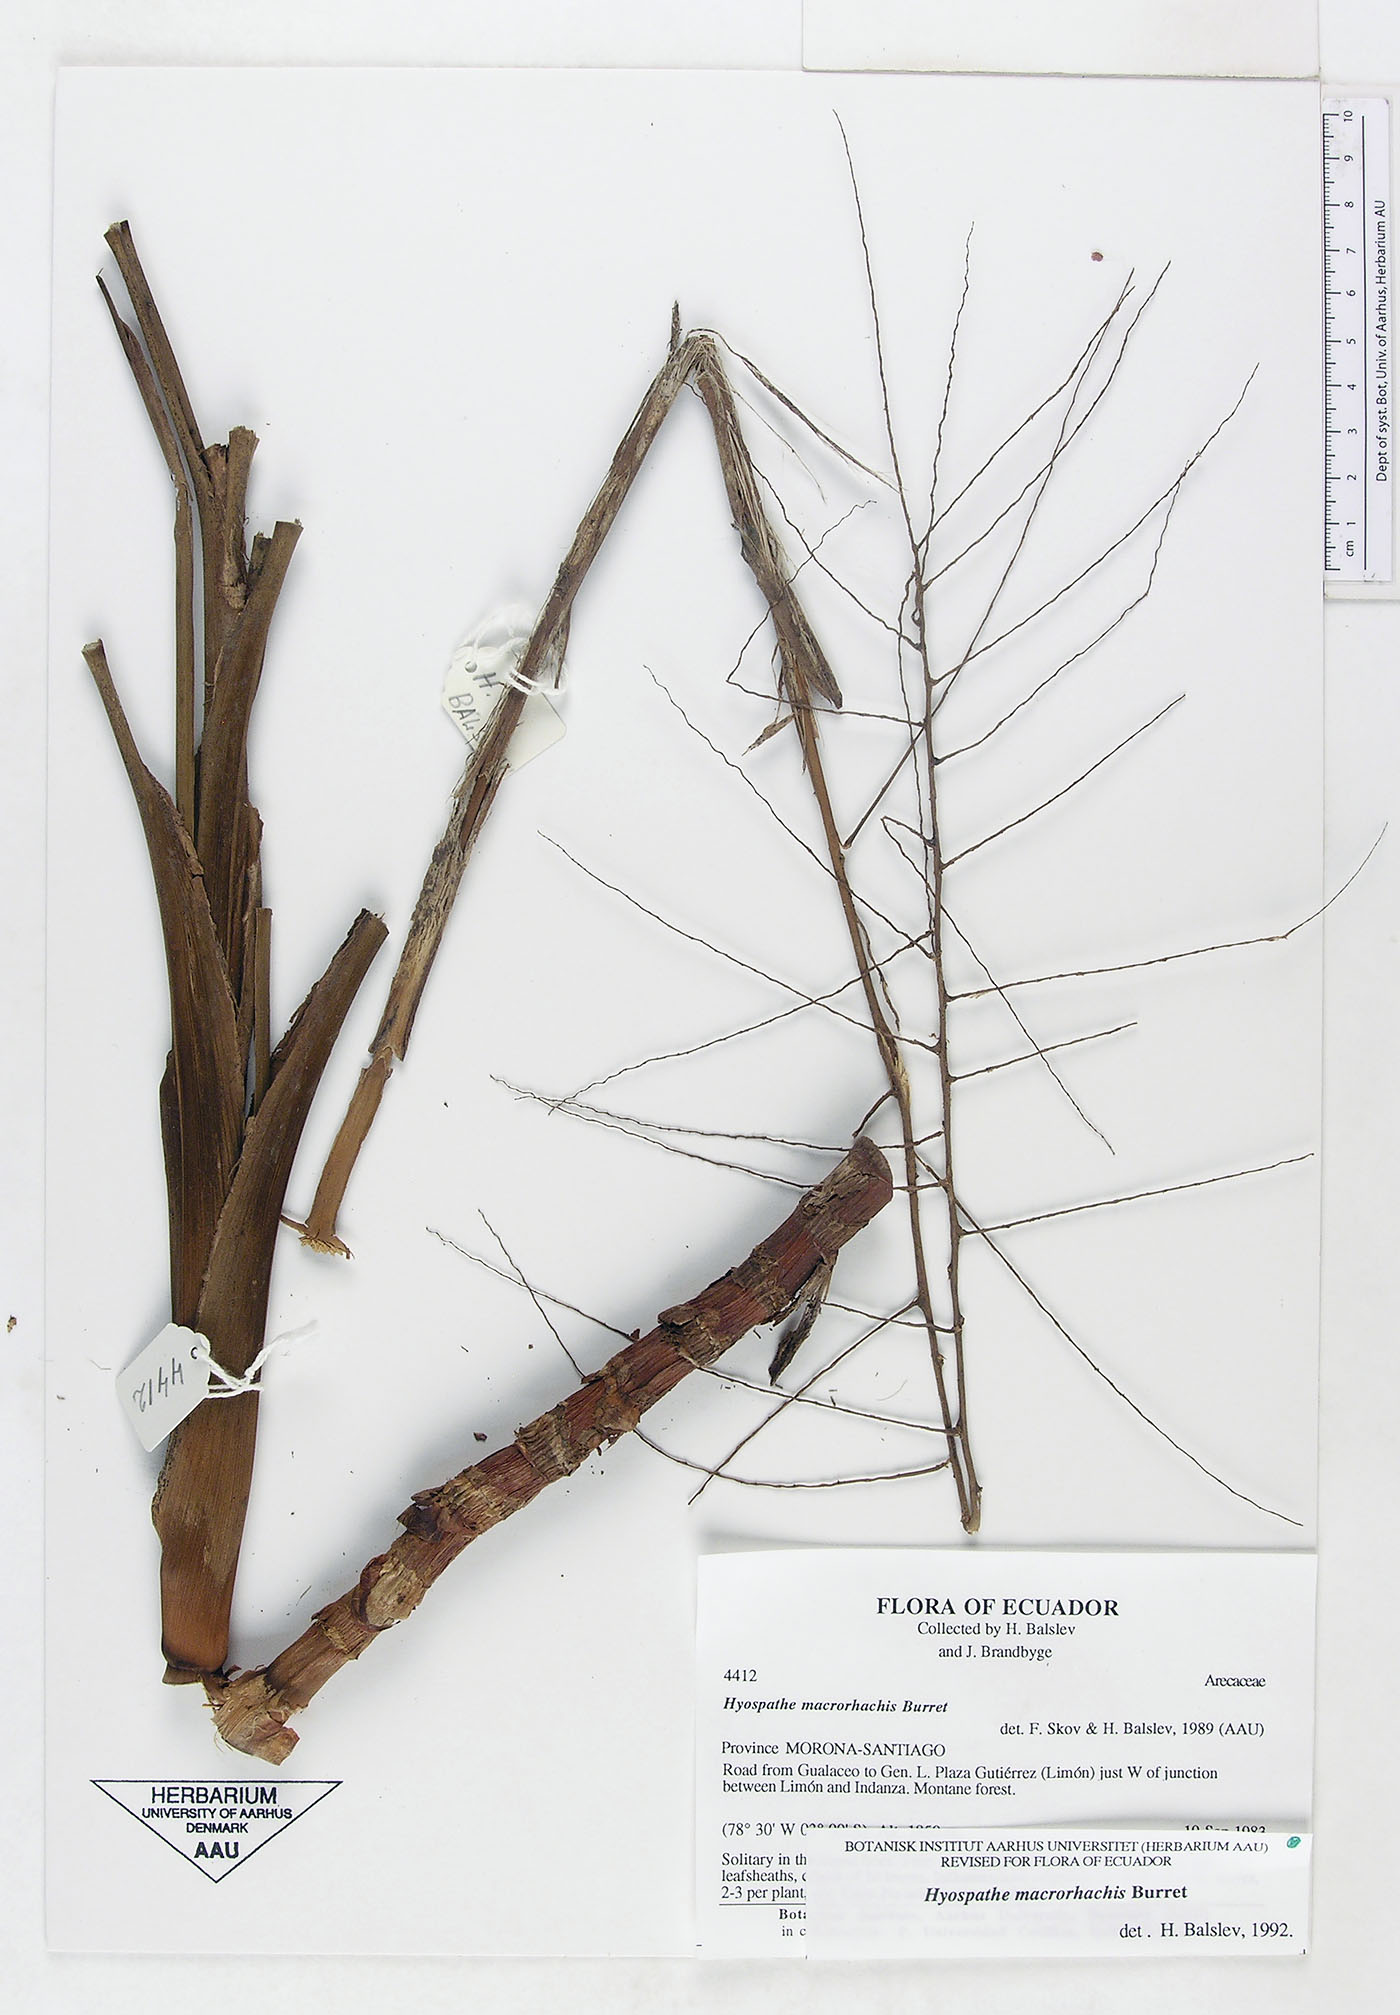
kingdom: Plantae
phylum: Tracheophyta
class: Liliopsida
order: Arecales
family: Arecaceae
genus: Hyospathe
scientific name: Hyospathe macrorhachis
